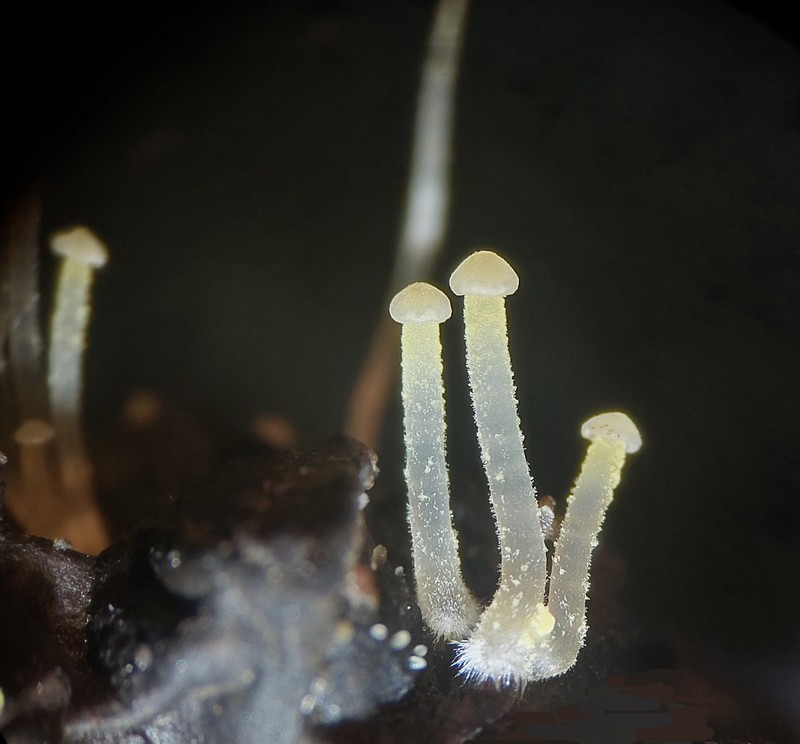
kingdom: Fungi
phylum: Basidiomycota
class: Agaricomycetes
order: Agaricales
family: Porotheleaceae
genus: Phloeomana
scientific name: Phloeomana speirea
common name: kvist-huesvamp
